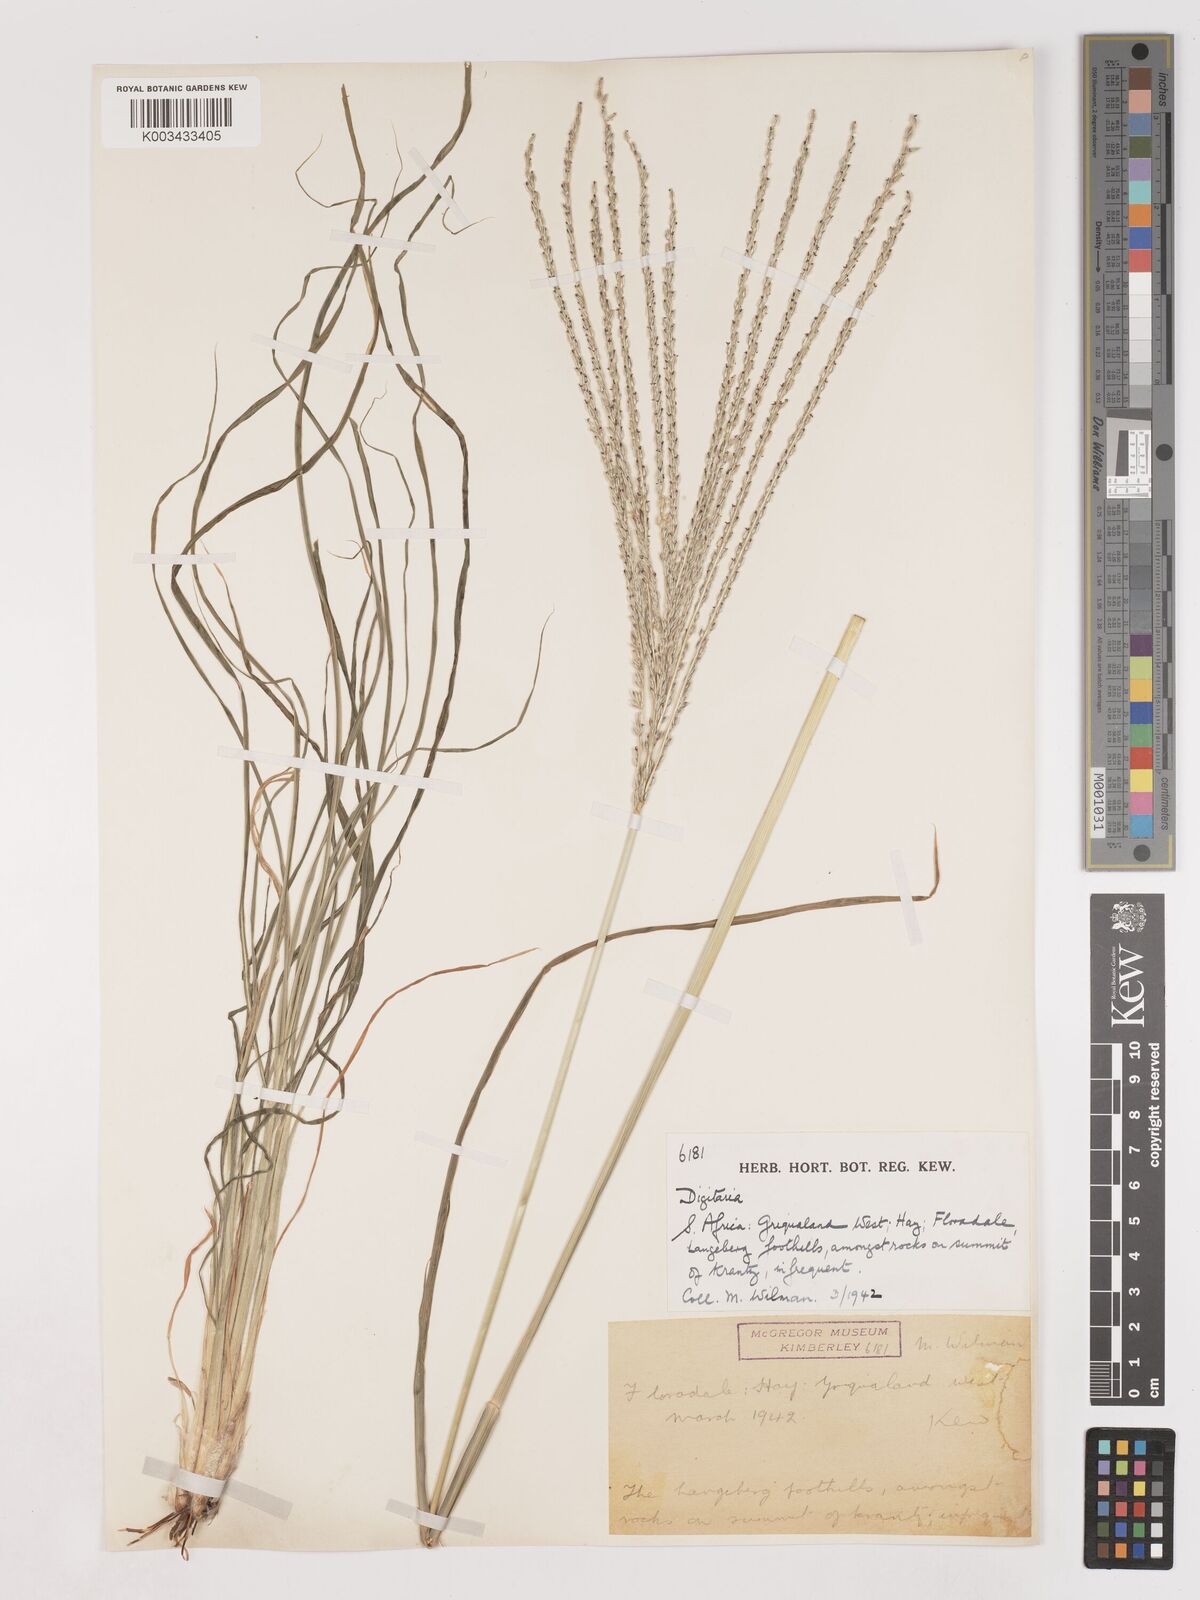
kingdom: Plantae
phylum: Tracheophyta
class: Liliopsida
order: Poales
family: Poaceae
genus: Digitaria
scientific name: Digitaria eriantha
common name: Digitgrass
